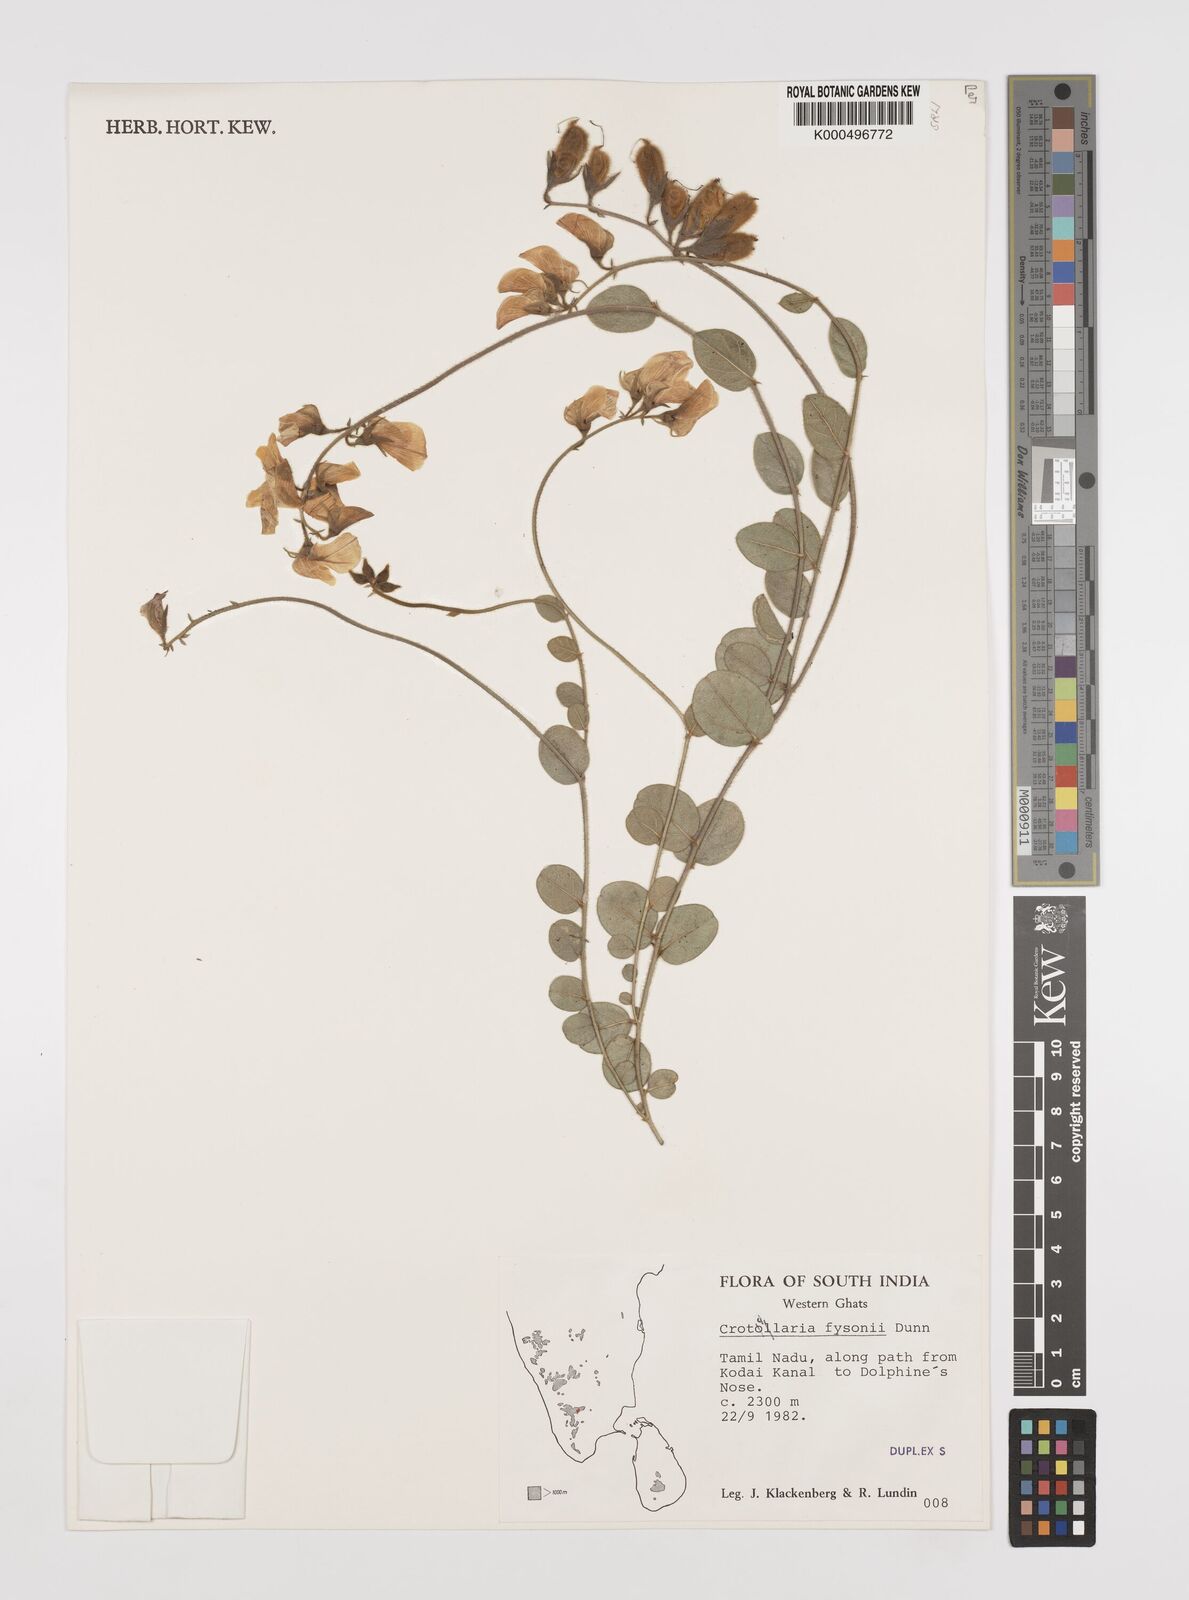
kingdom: Plantae
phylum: Tracheophyta
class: Magnoliopsida
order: Fabales
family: Fabaceae
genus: Crotalaria
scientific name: Crotalaria fysonii
